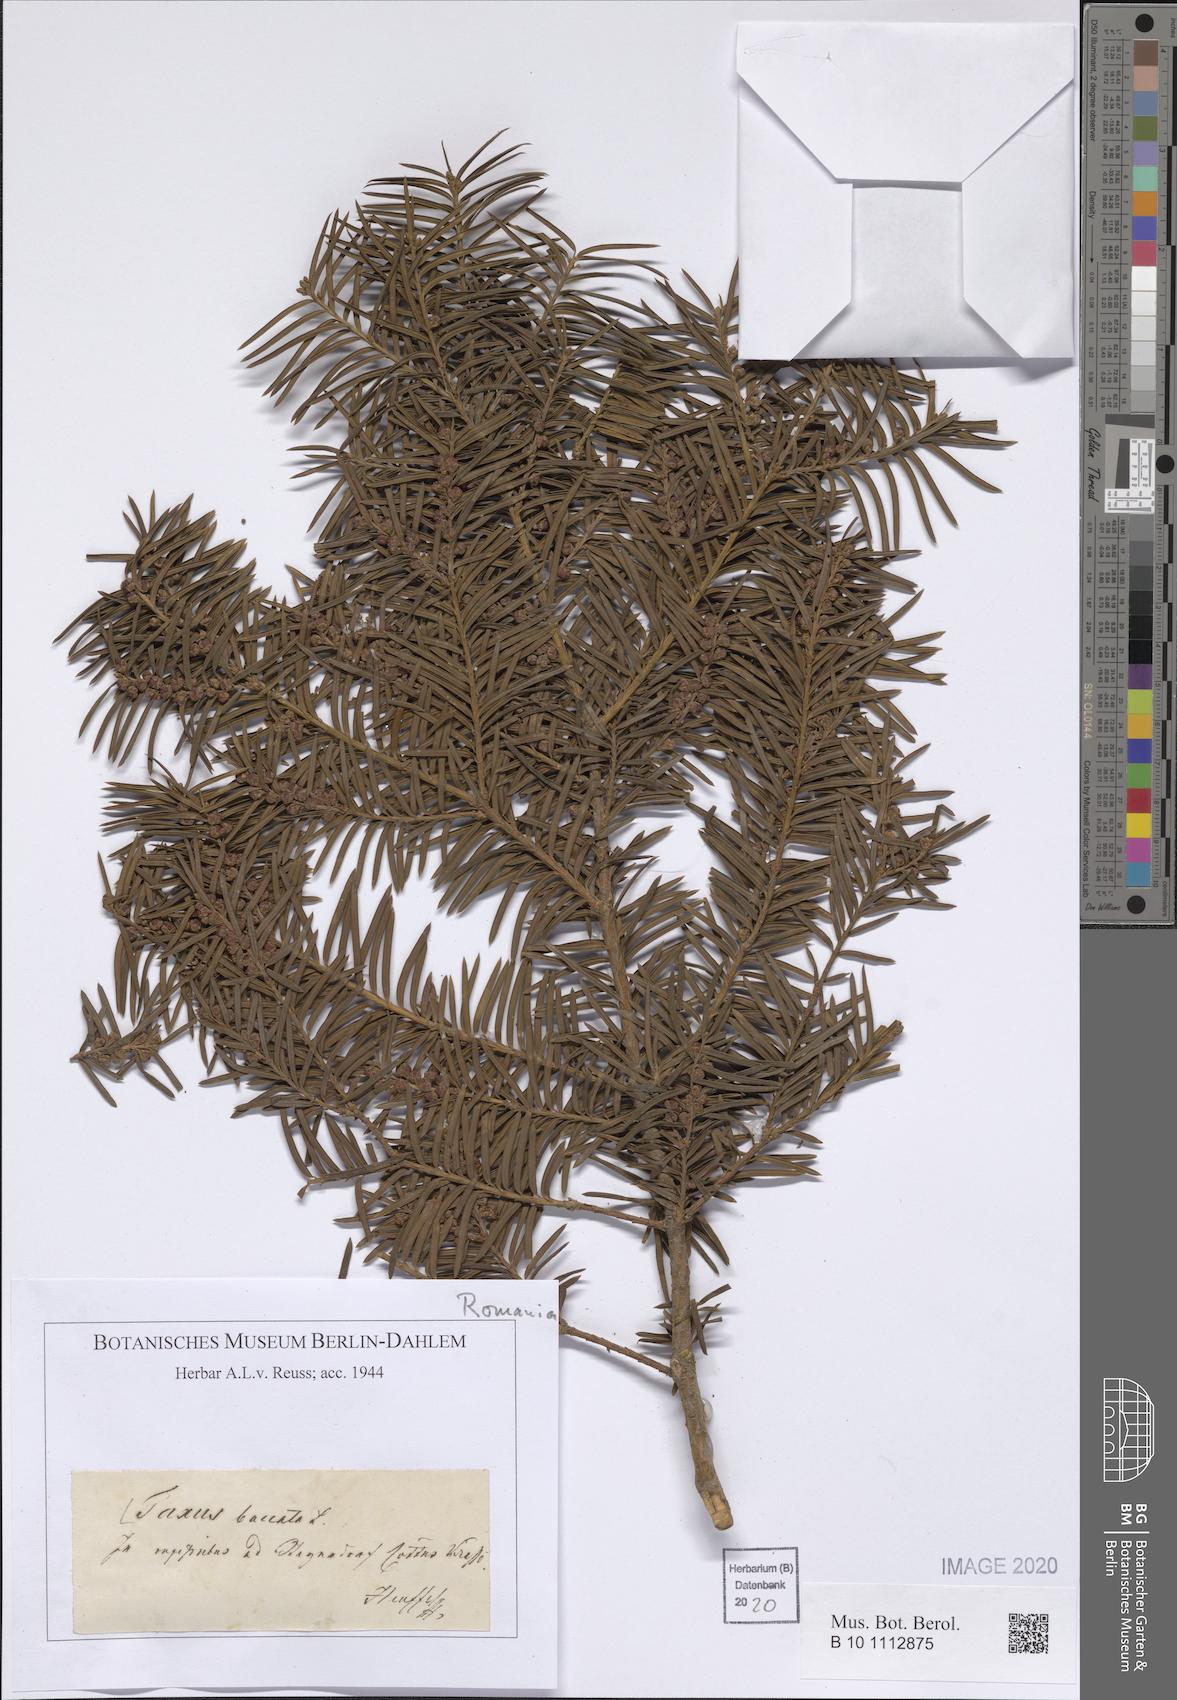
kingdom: Plantae
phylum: Tracheophyta
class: Pinopsida
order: Pinales
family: Taxaceae
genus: Taxus
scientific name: Taxus baccata
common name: Yew
